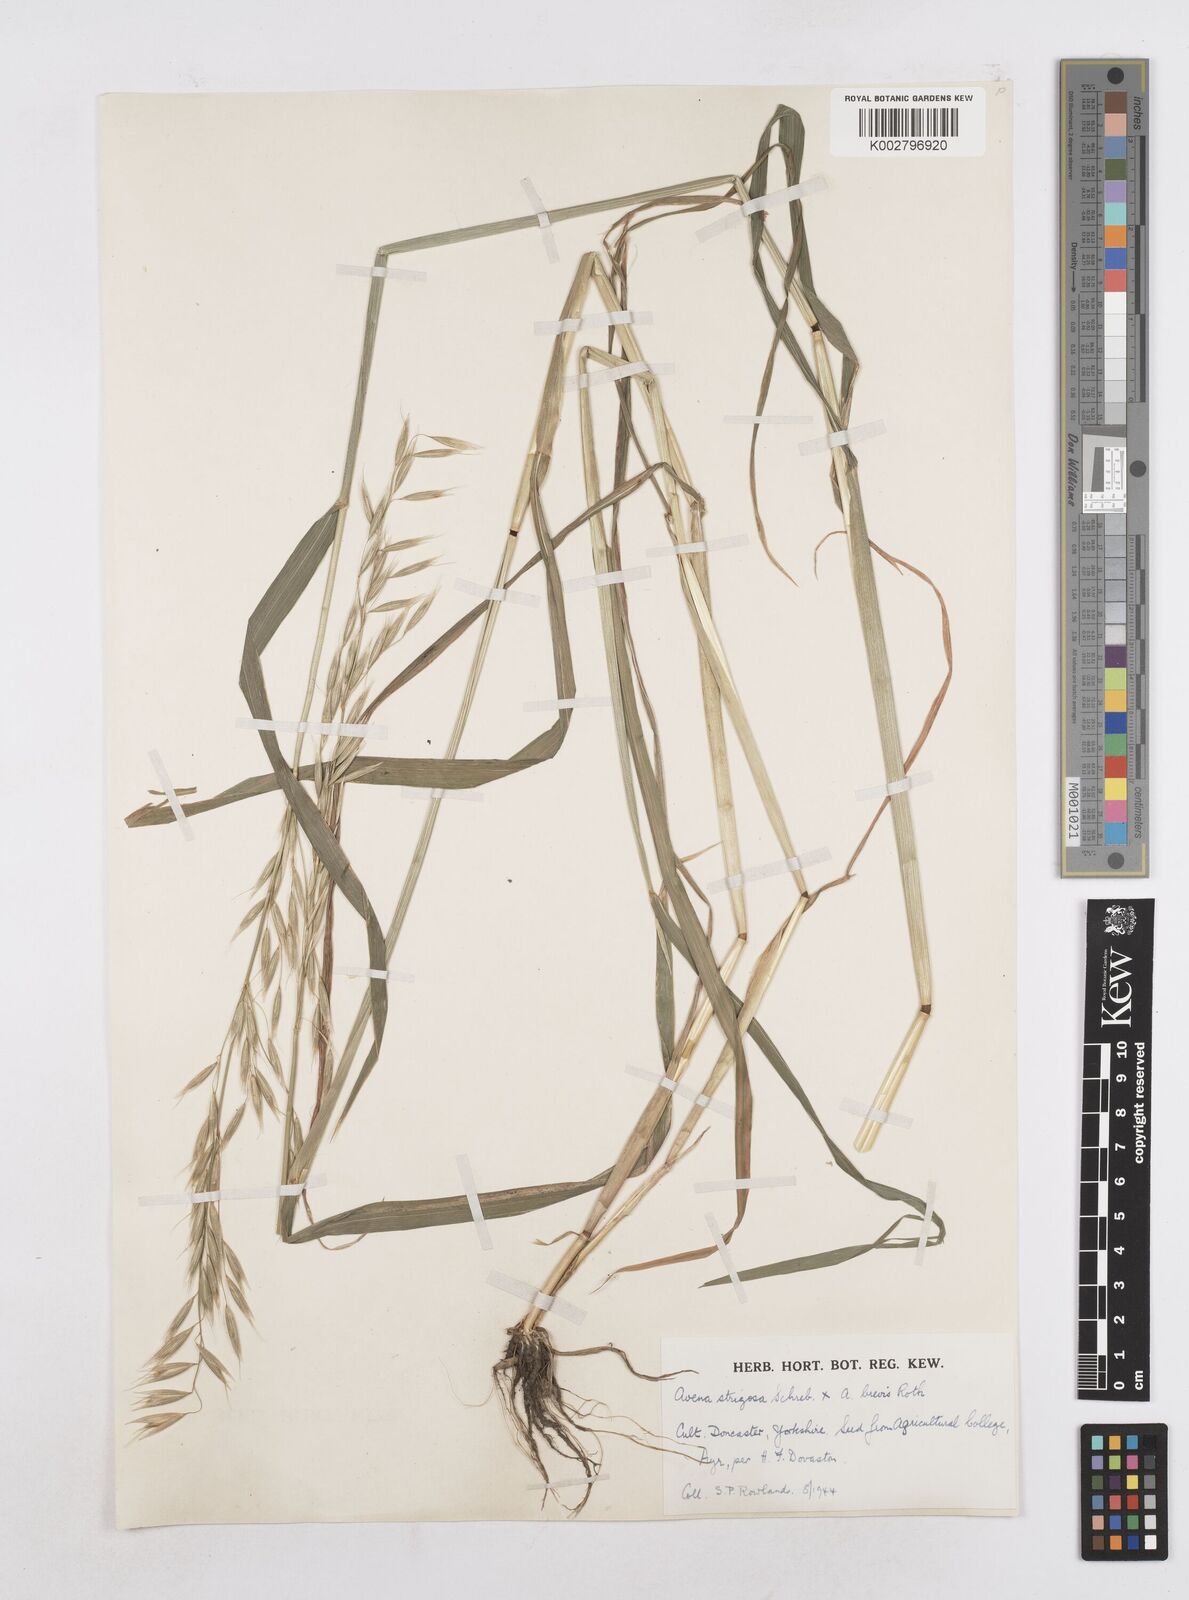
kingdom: Plantae
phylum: Tracheophyta
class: Liliopsida
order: Poales
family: Poaceae
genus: Avena
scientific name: Avena brevis
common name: Short oat
